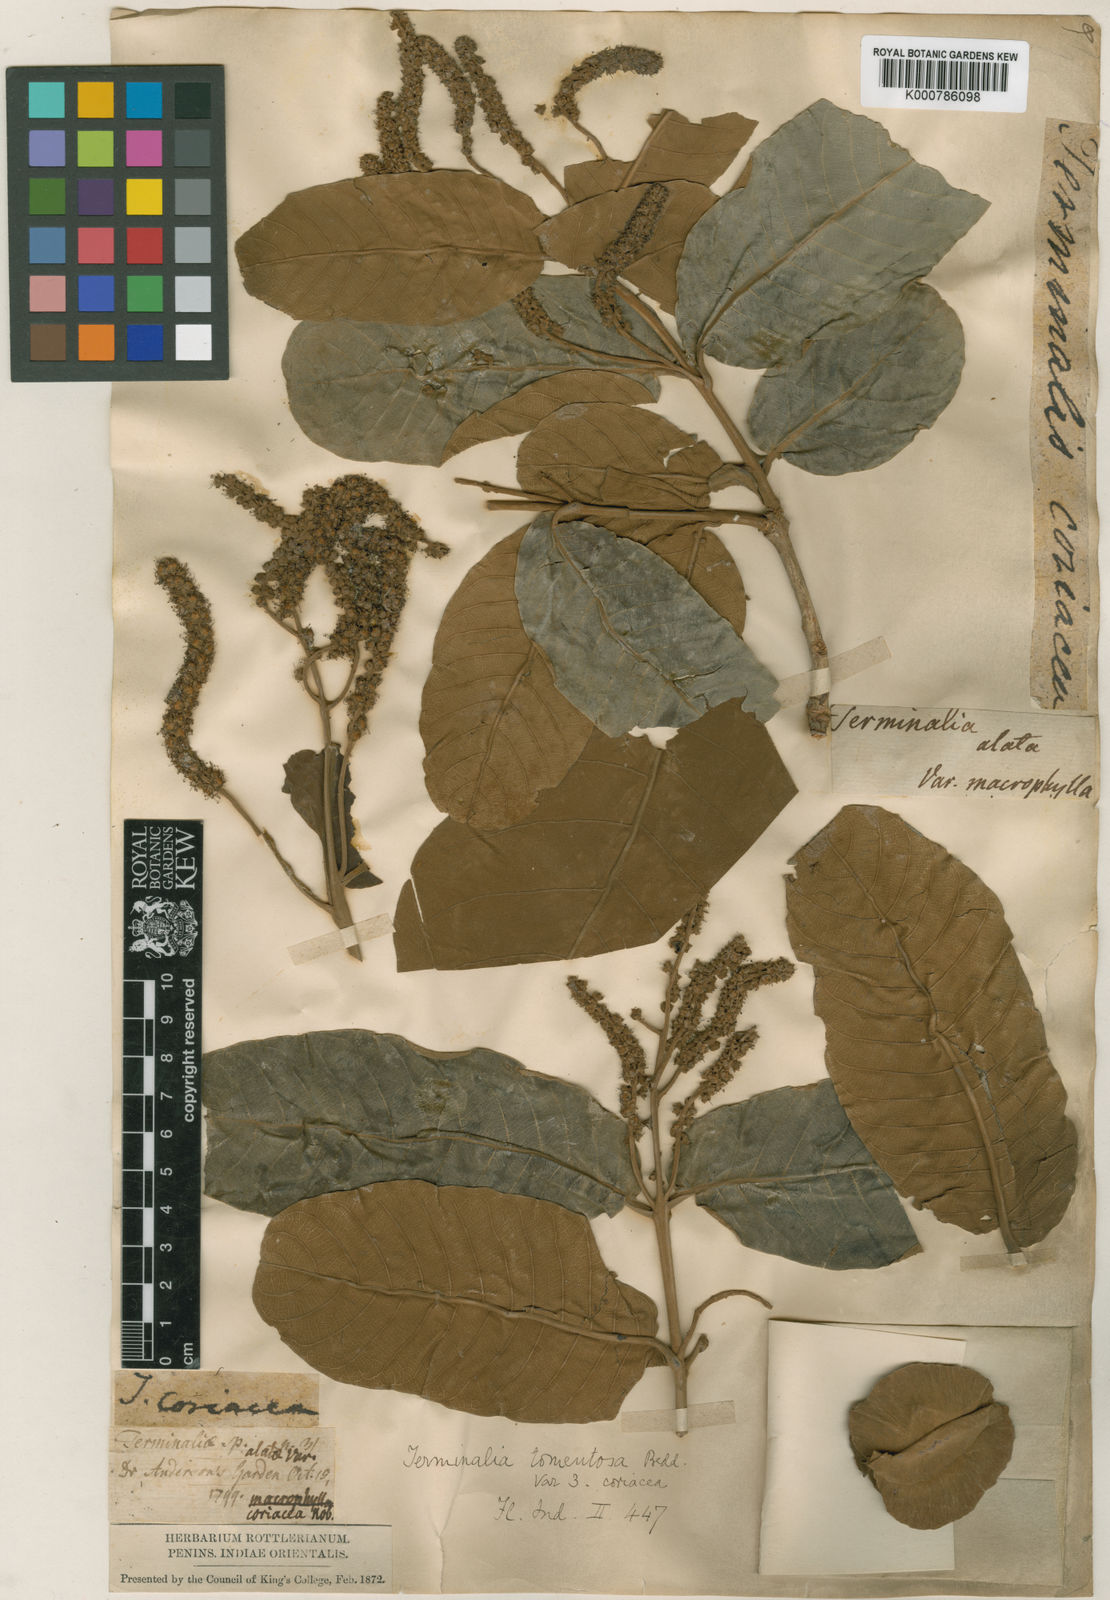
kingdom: Plantae
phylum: Tracheophyta
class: Magnoliopsida
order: Myrtales
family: Combretaceae
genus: Terminalia
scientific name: Terminalia coriacea
